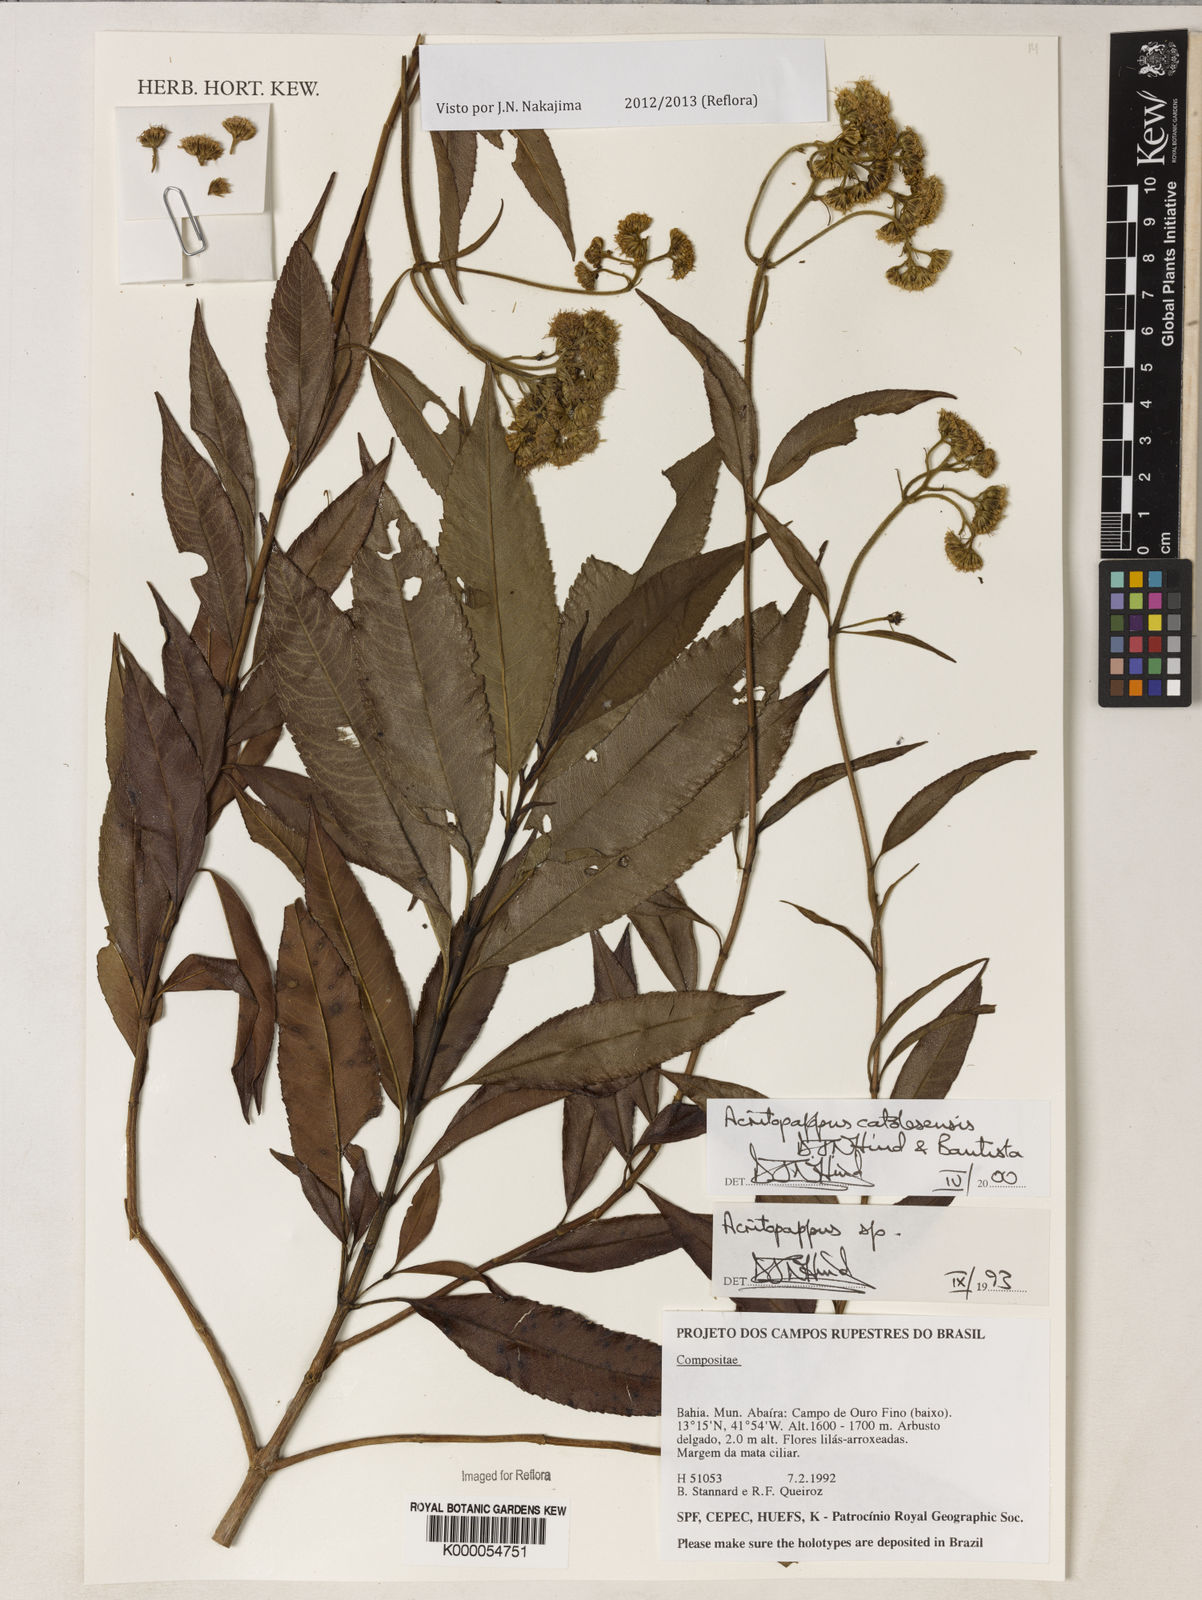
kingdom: Plantae
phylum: Tracheophyta
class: Magnoliopsida
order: Asterales
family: Asteraceae
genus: Acritopappus
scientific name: Acritopappus catolesensis
